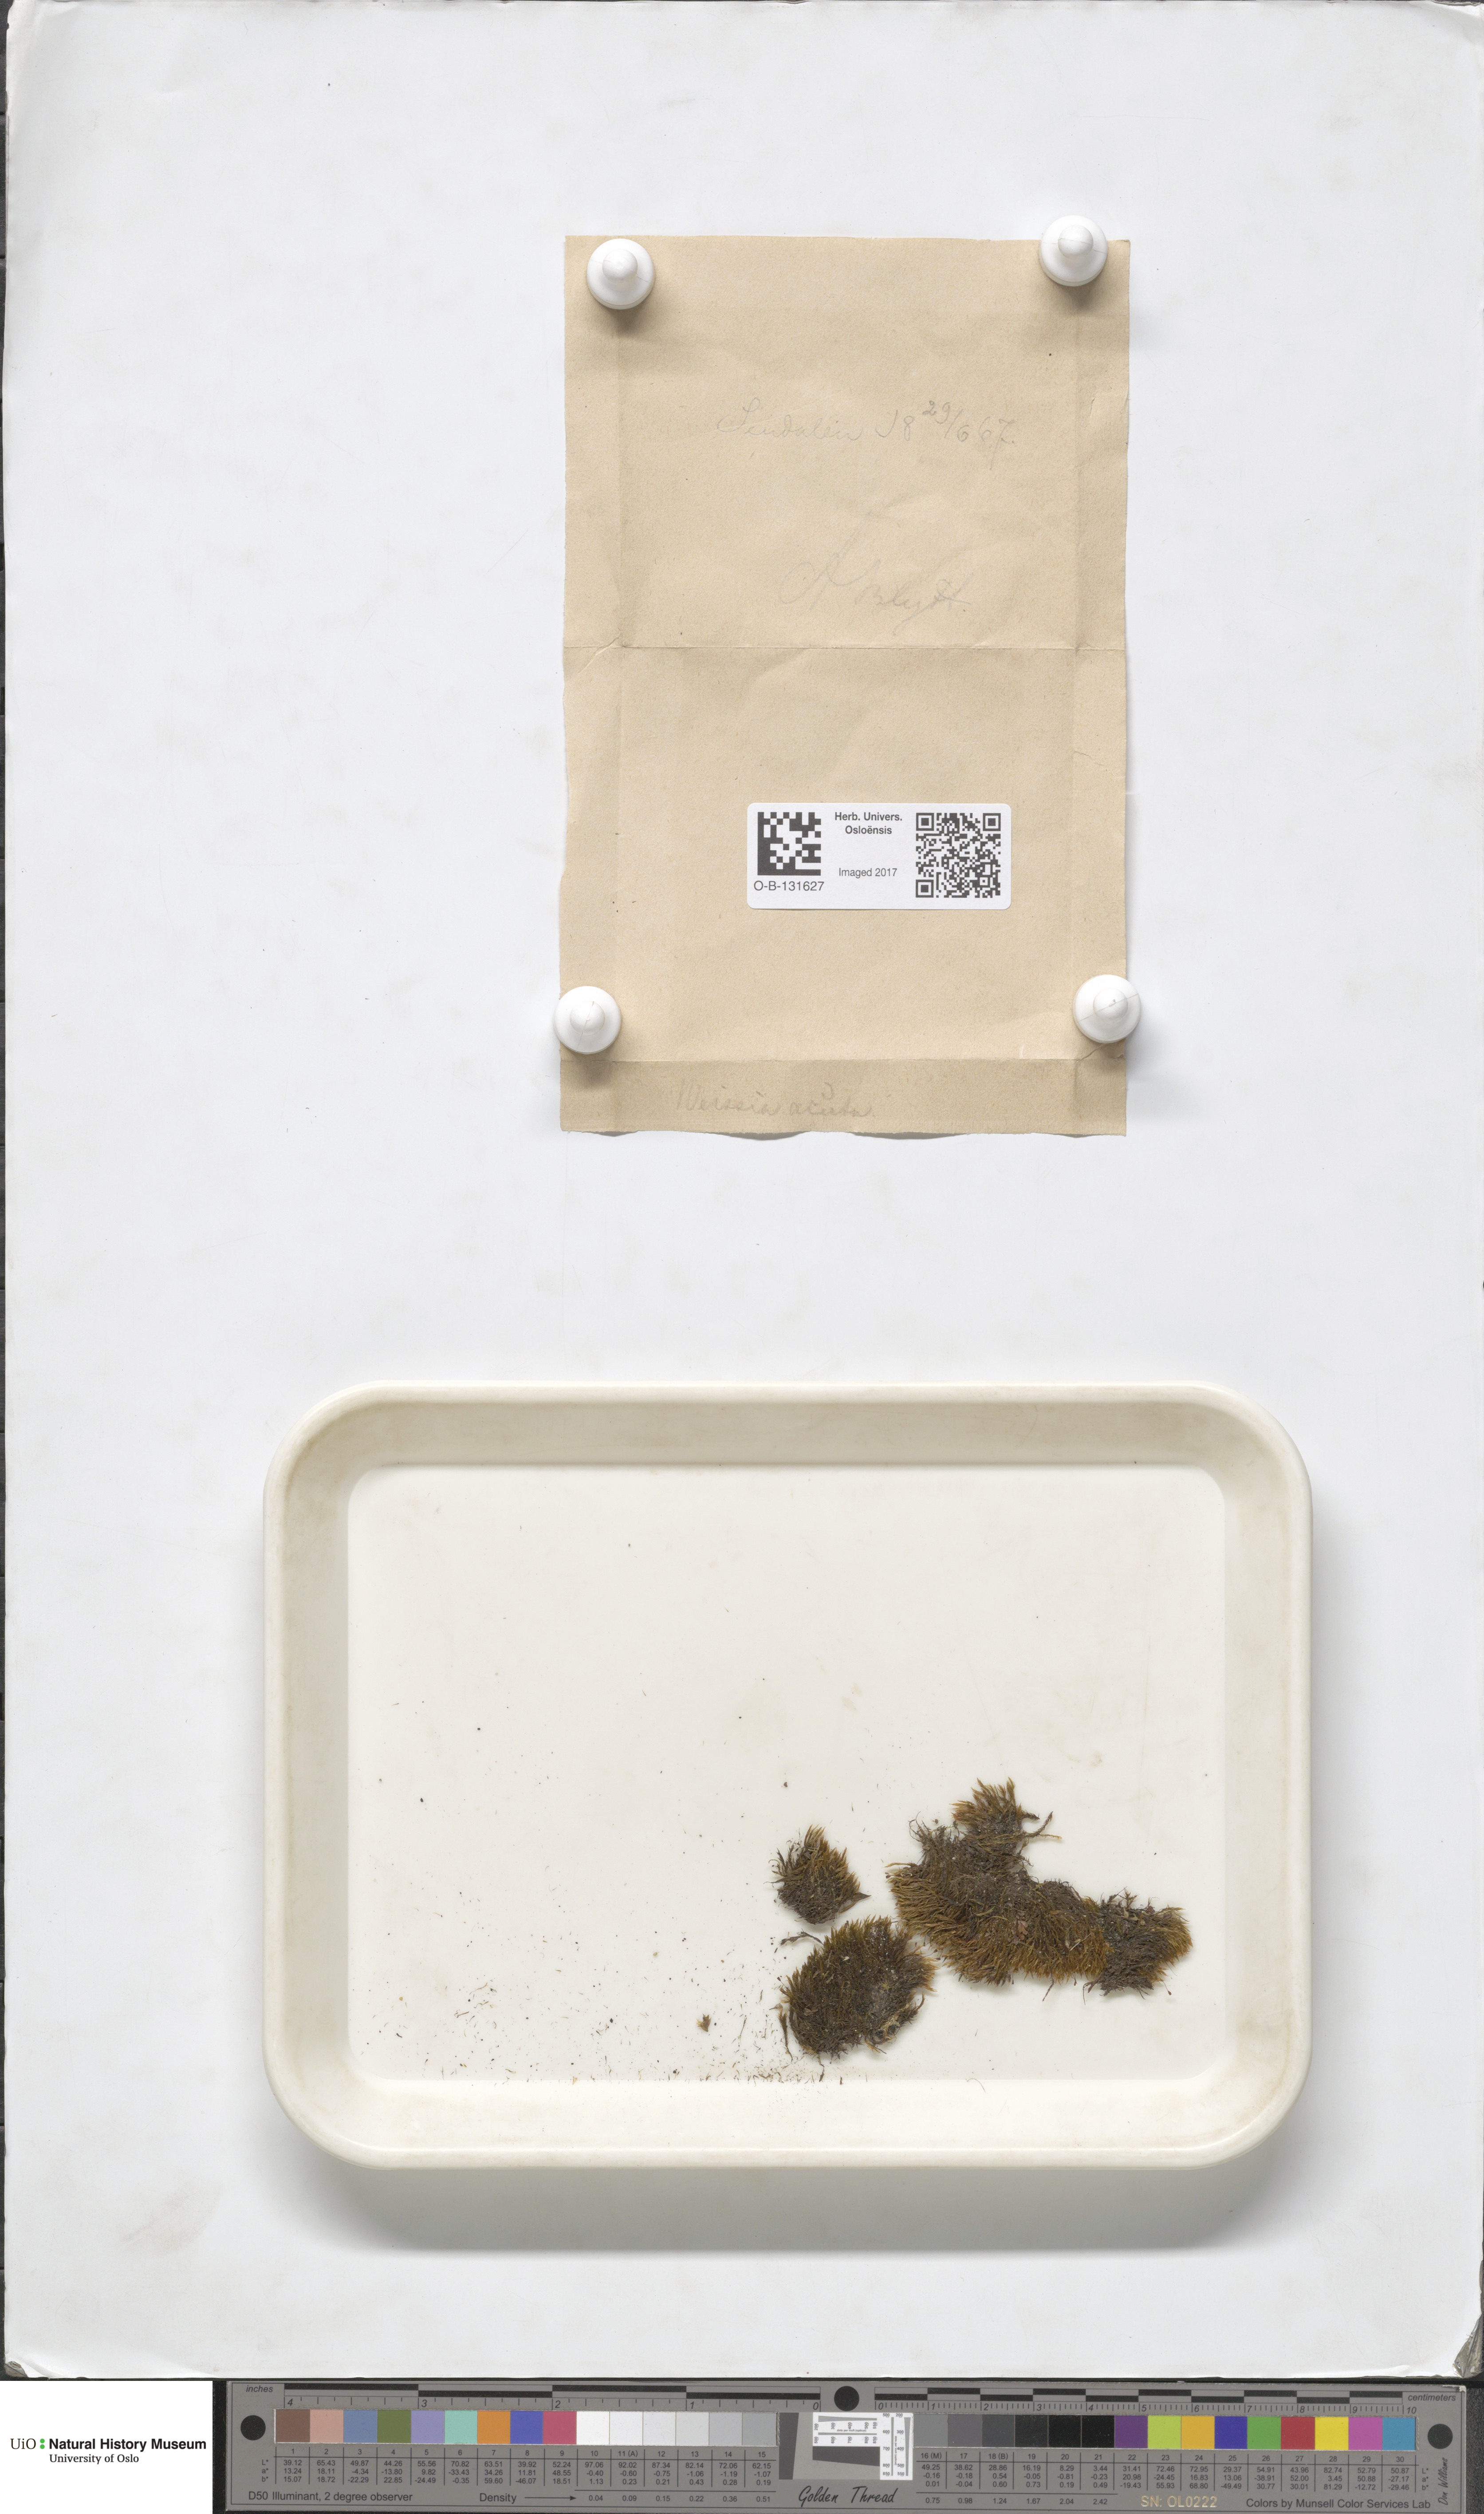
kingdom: Plantae
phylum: Bryophyta
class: Bryopsida
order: Grimmiales
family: Seligeriaceae
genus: Blindia
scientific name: Blindia acuta
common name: Sharp-leaved blind's moss
